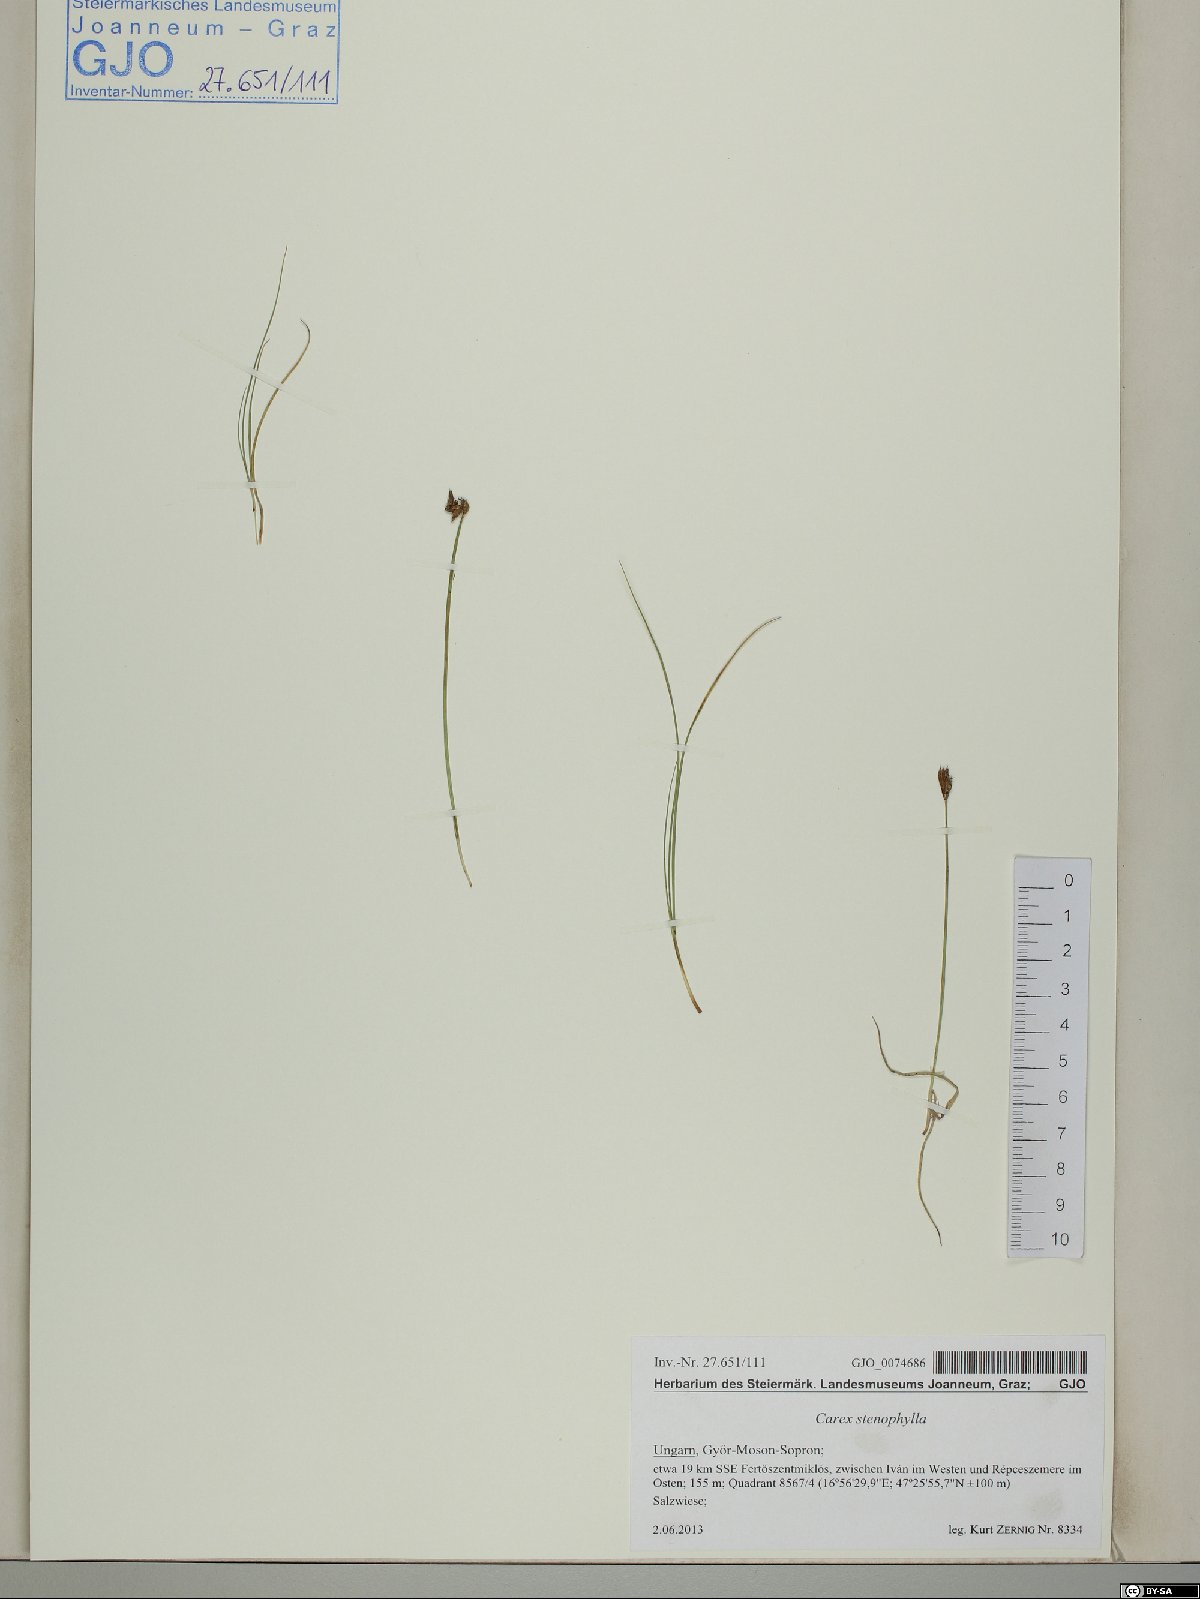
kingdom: Plantae
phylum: Tracheophyta
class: Liliopsida
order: Poales
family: Cyperaceae
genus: Carex
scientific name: Carex stenophylla
